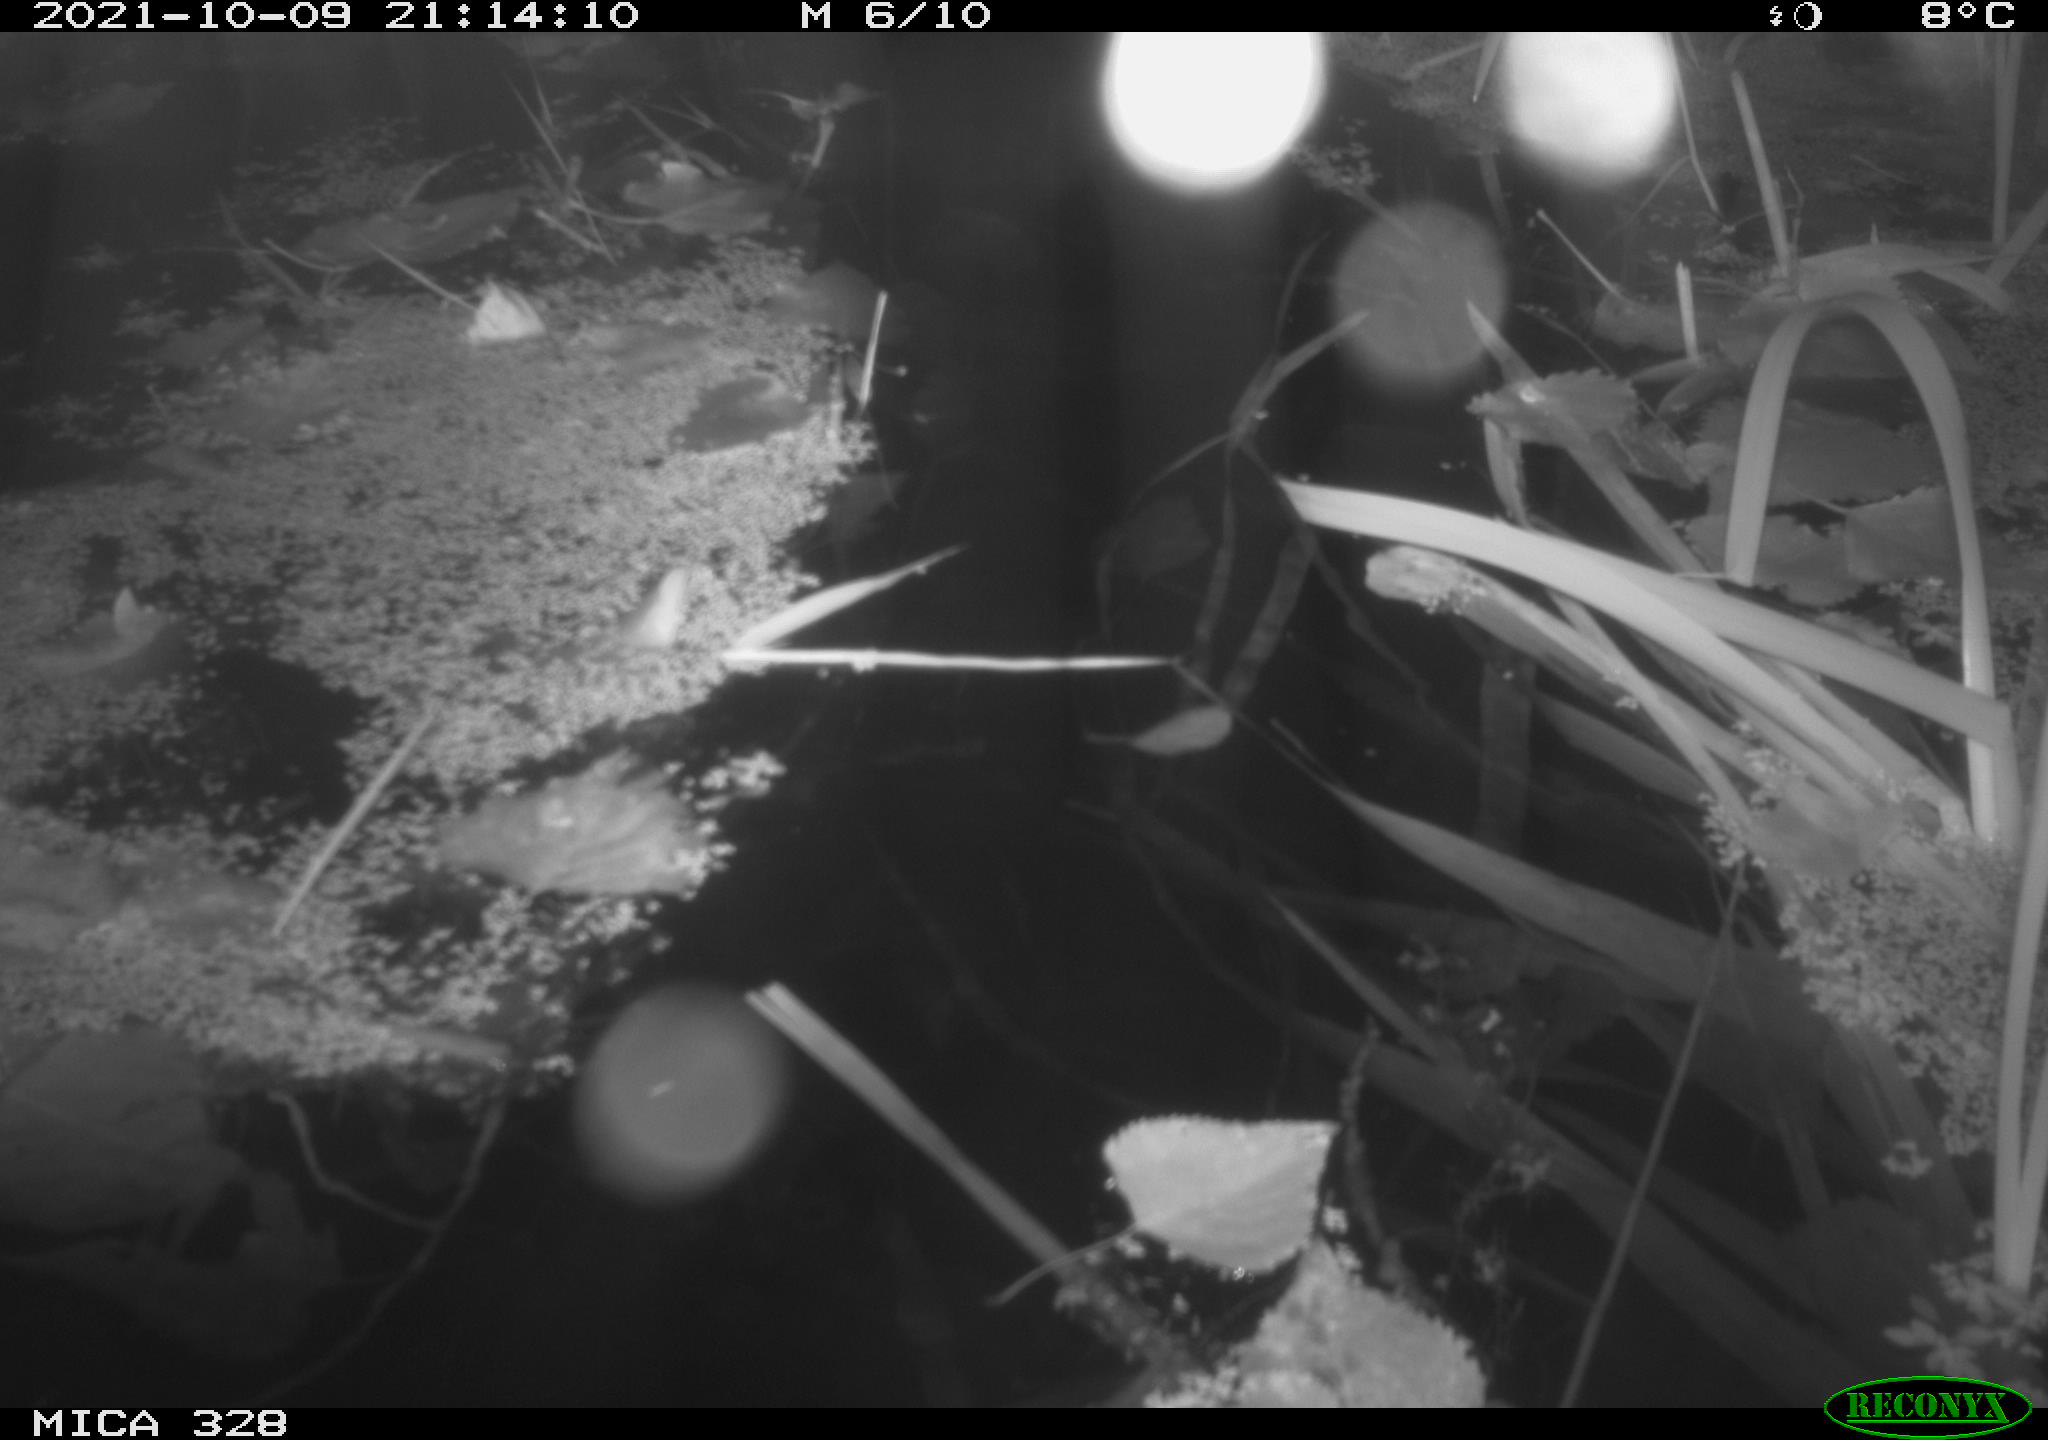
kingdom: Animalia
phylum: Chordata
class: Mammalia
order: Rodentia
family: Cricetidae
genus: Ondatra
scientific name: Ondatra zibethicus
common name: Muskrat
